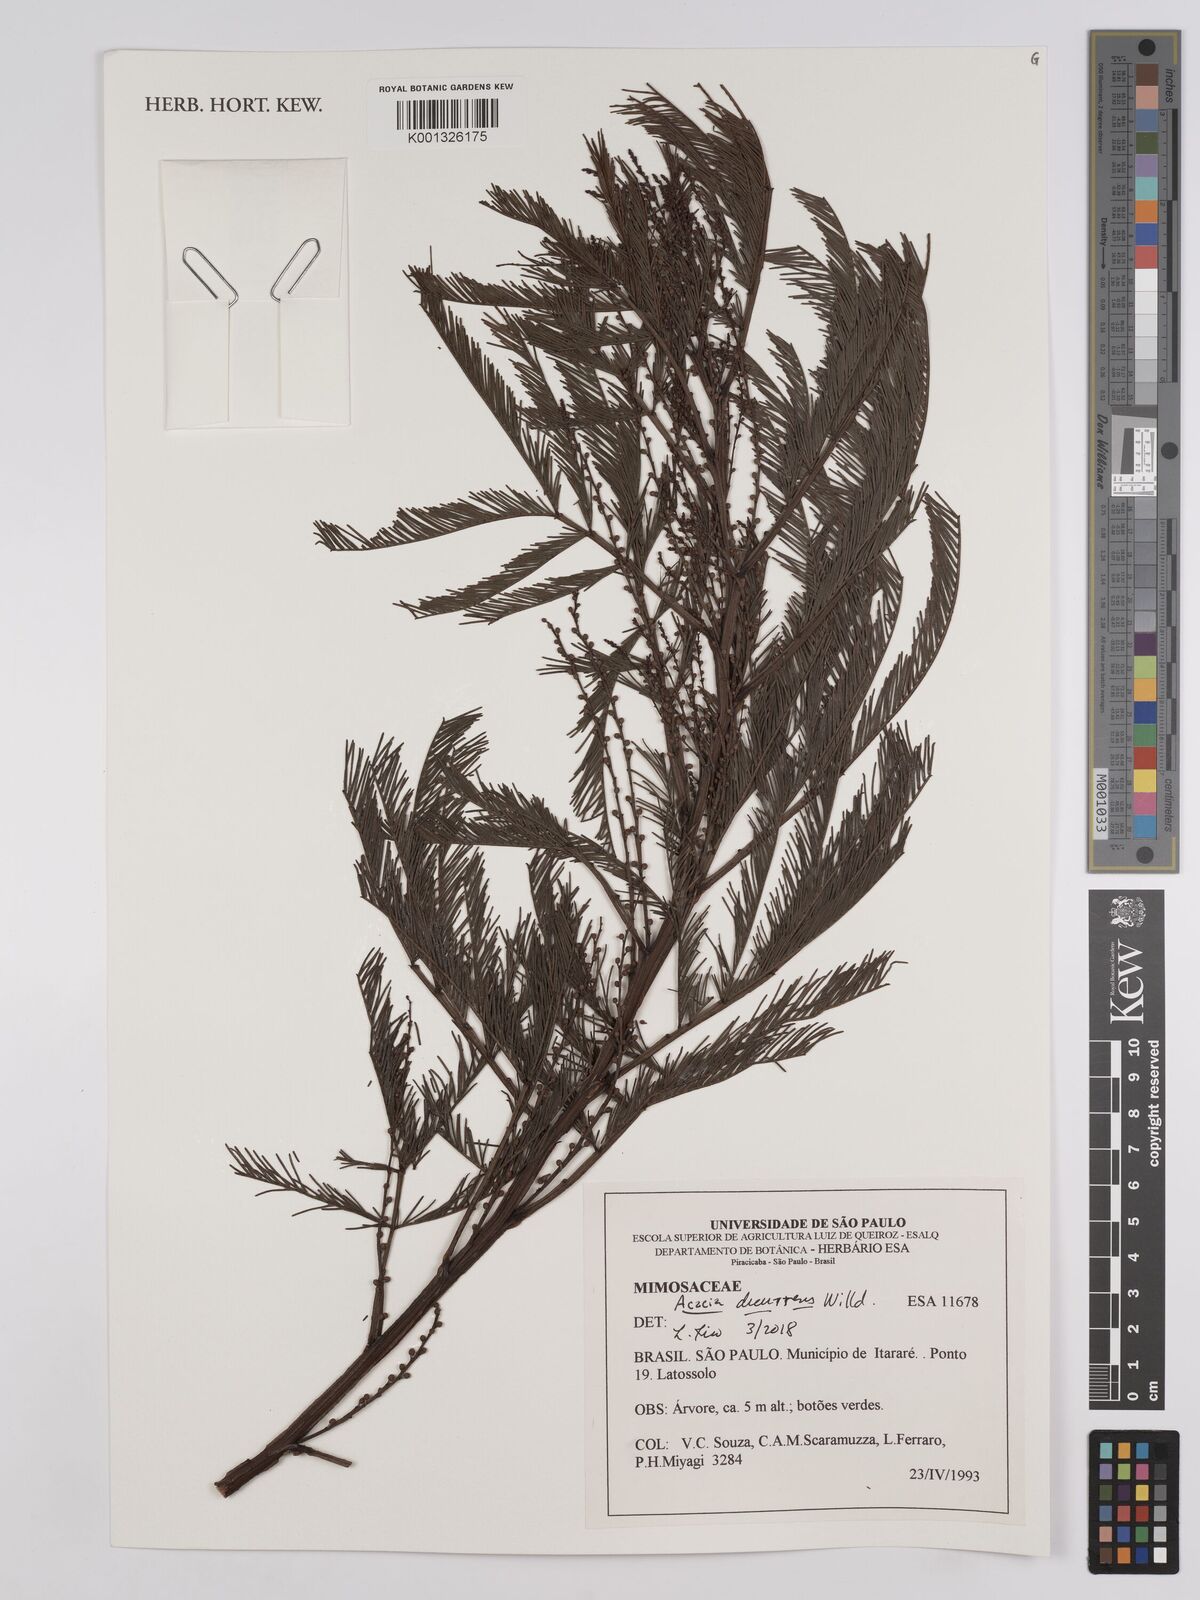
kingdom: Plantae
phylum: Tracheophyta
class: Magnoliopsida
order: Fabales
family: Fabaceae
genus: Acacia
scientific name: Acacia decurrens
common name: Green wattle
